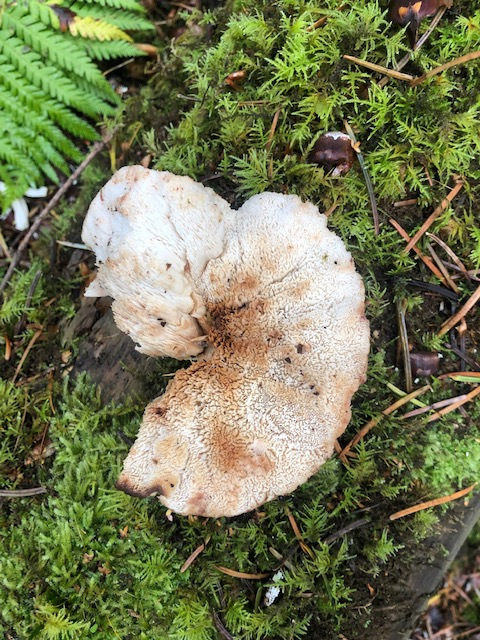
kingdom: Fungi
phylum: Basidiomycota
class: Agaricomycetes
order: Polyporales
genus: Fuscopostia
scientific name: Fuscopostia fragilis
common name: brunende kødporesvamp
